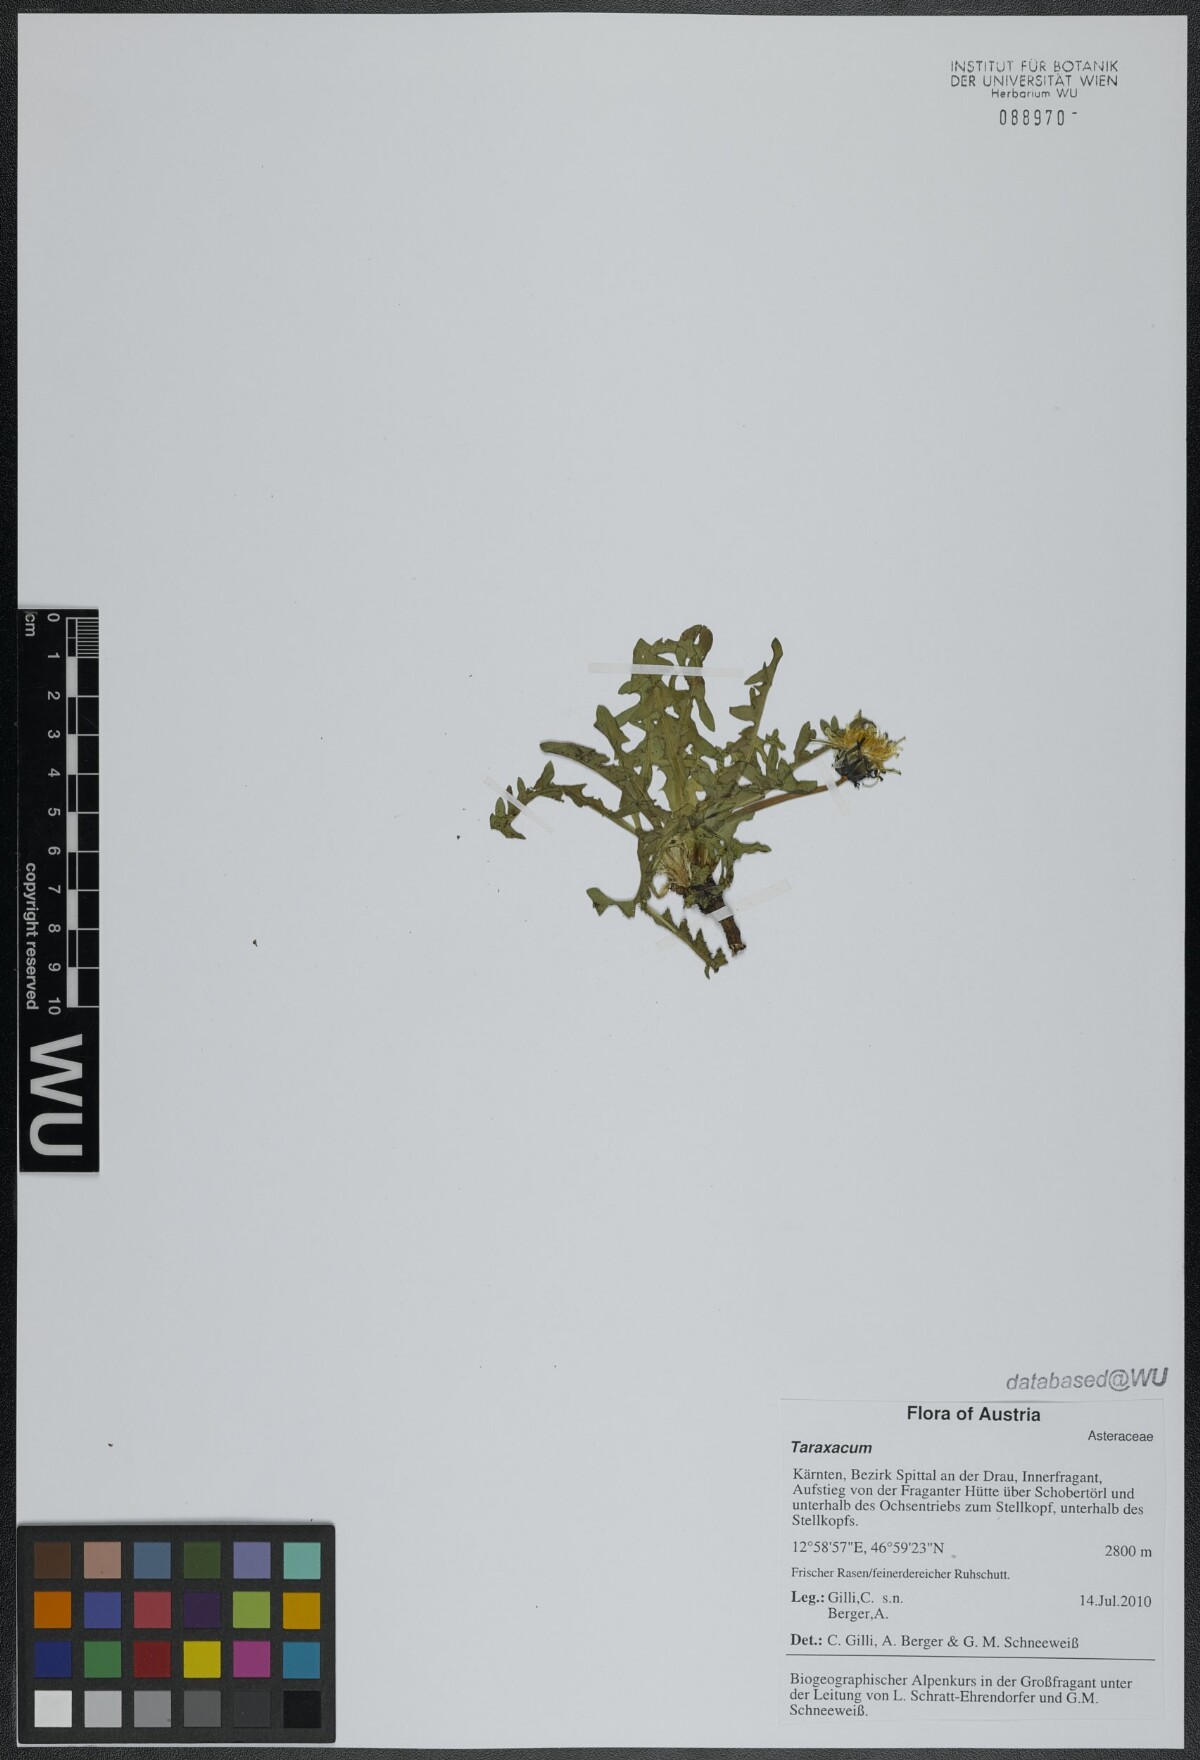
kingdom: Plantae
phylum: Tracheophyta
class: Magnoliopsida
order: Asterales
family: Asteraceae
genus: Taraxacum
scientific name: Taraxacum
